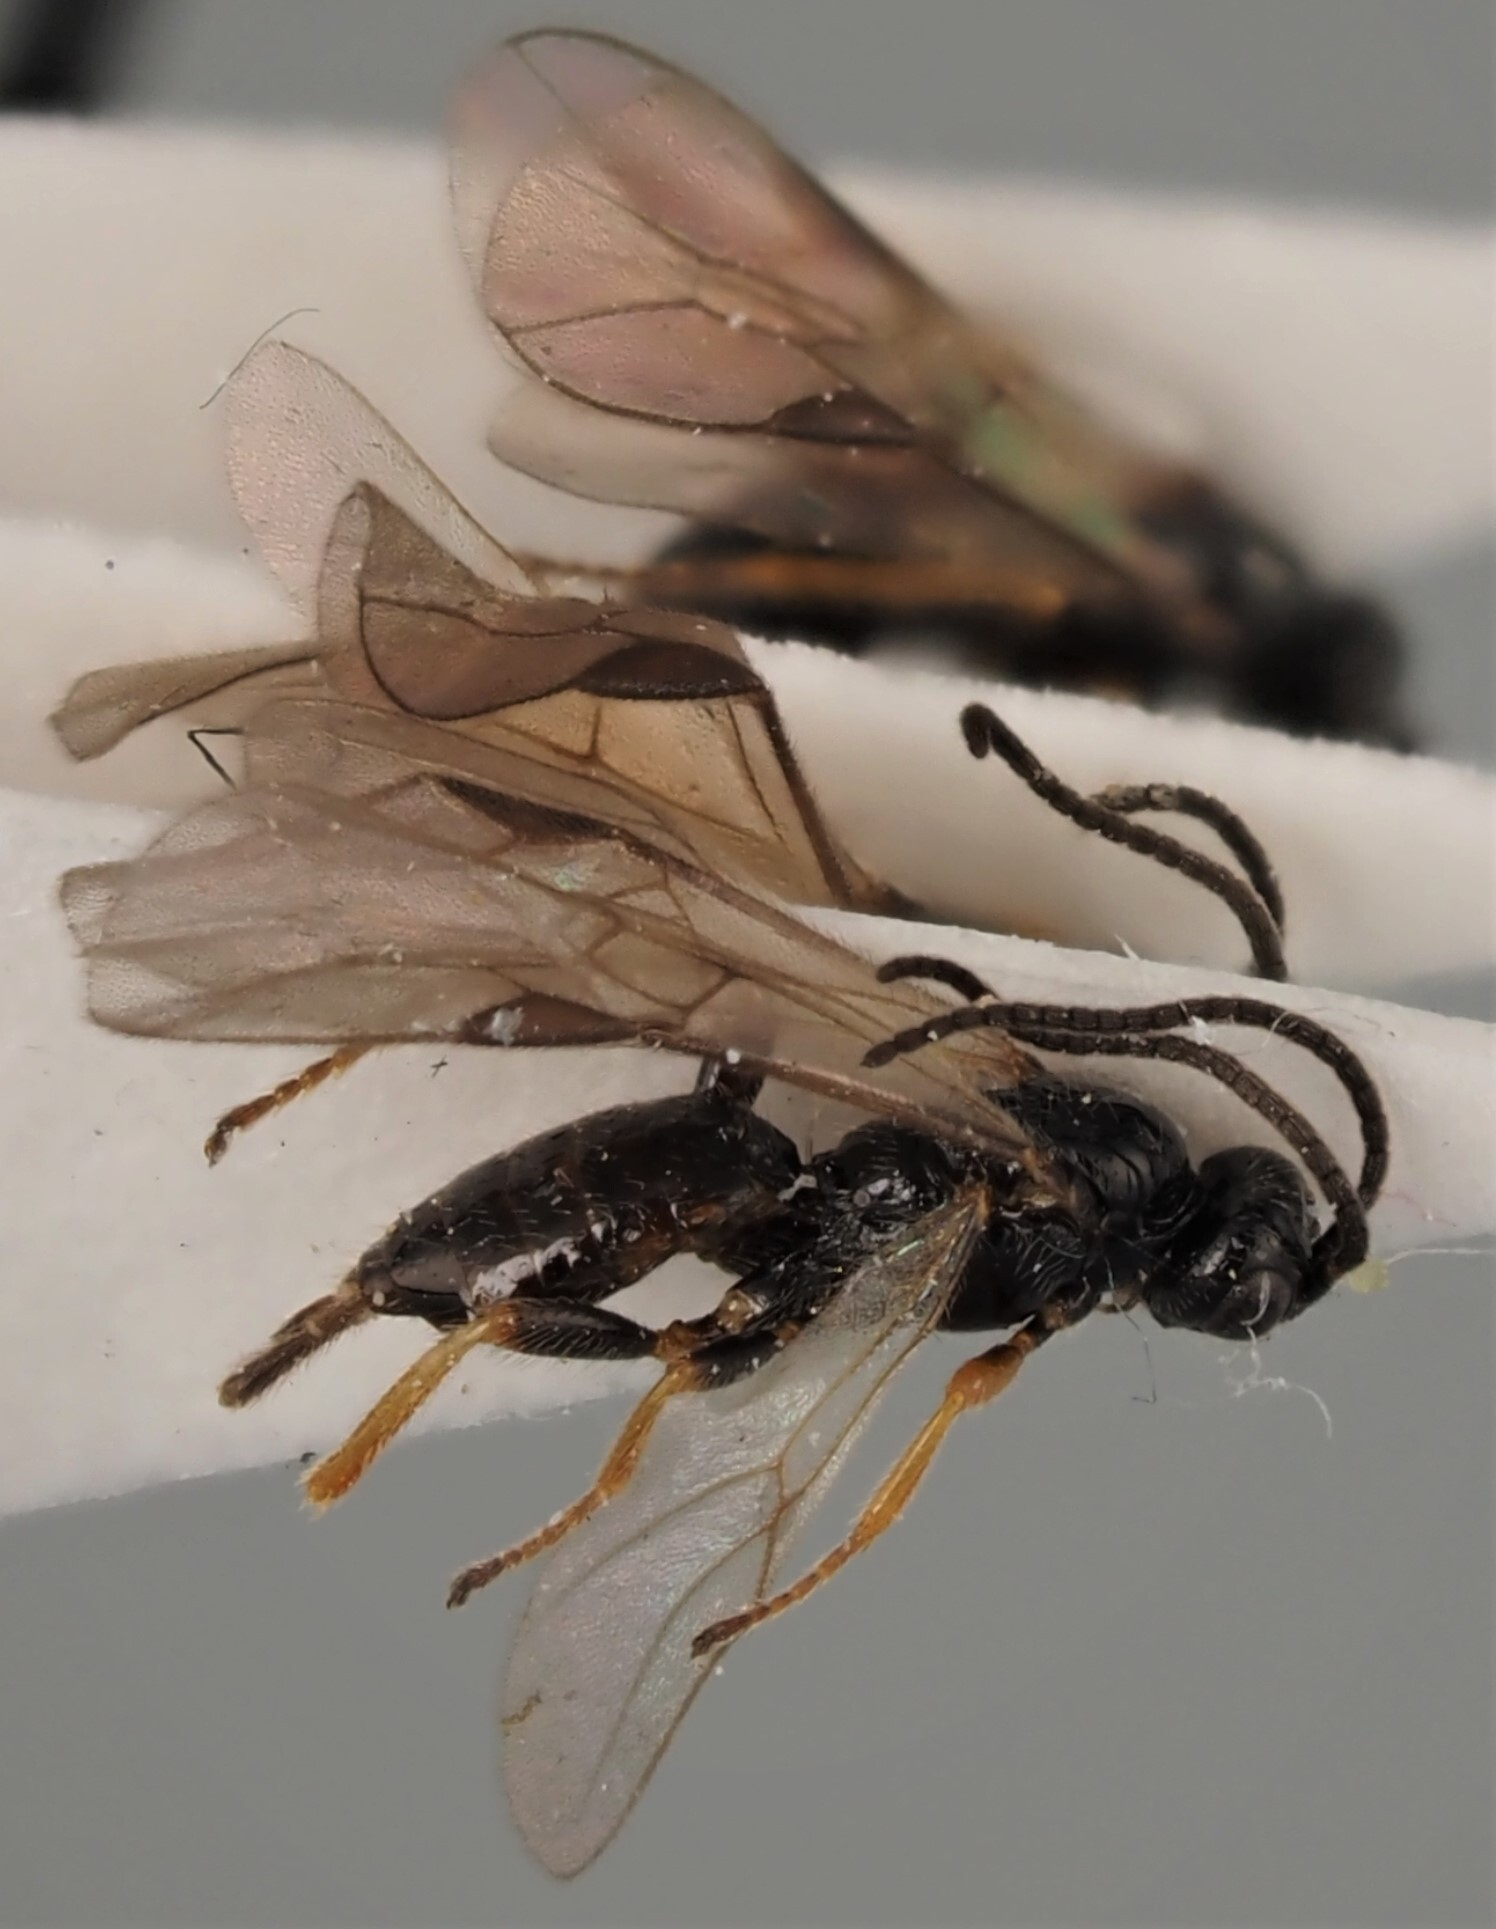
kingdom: Animalia
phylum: Arthropoda
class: Insecta
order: Hymenoptera
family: Braconidae
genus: Bracon
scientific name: Bracon exhilarator
